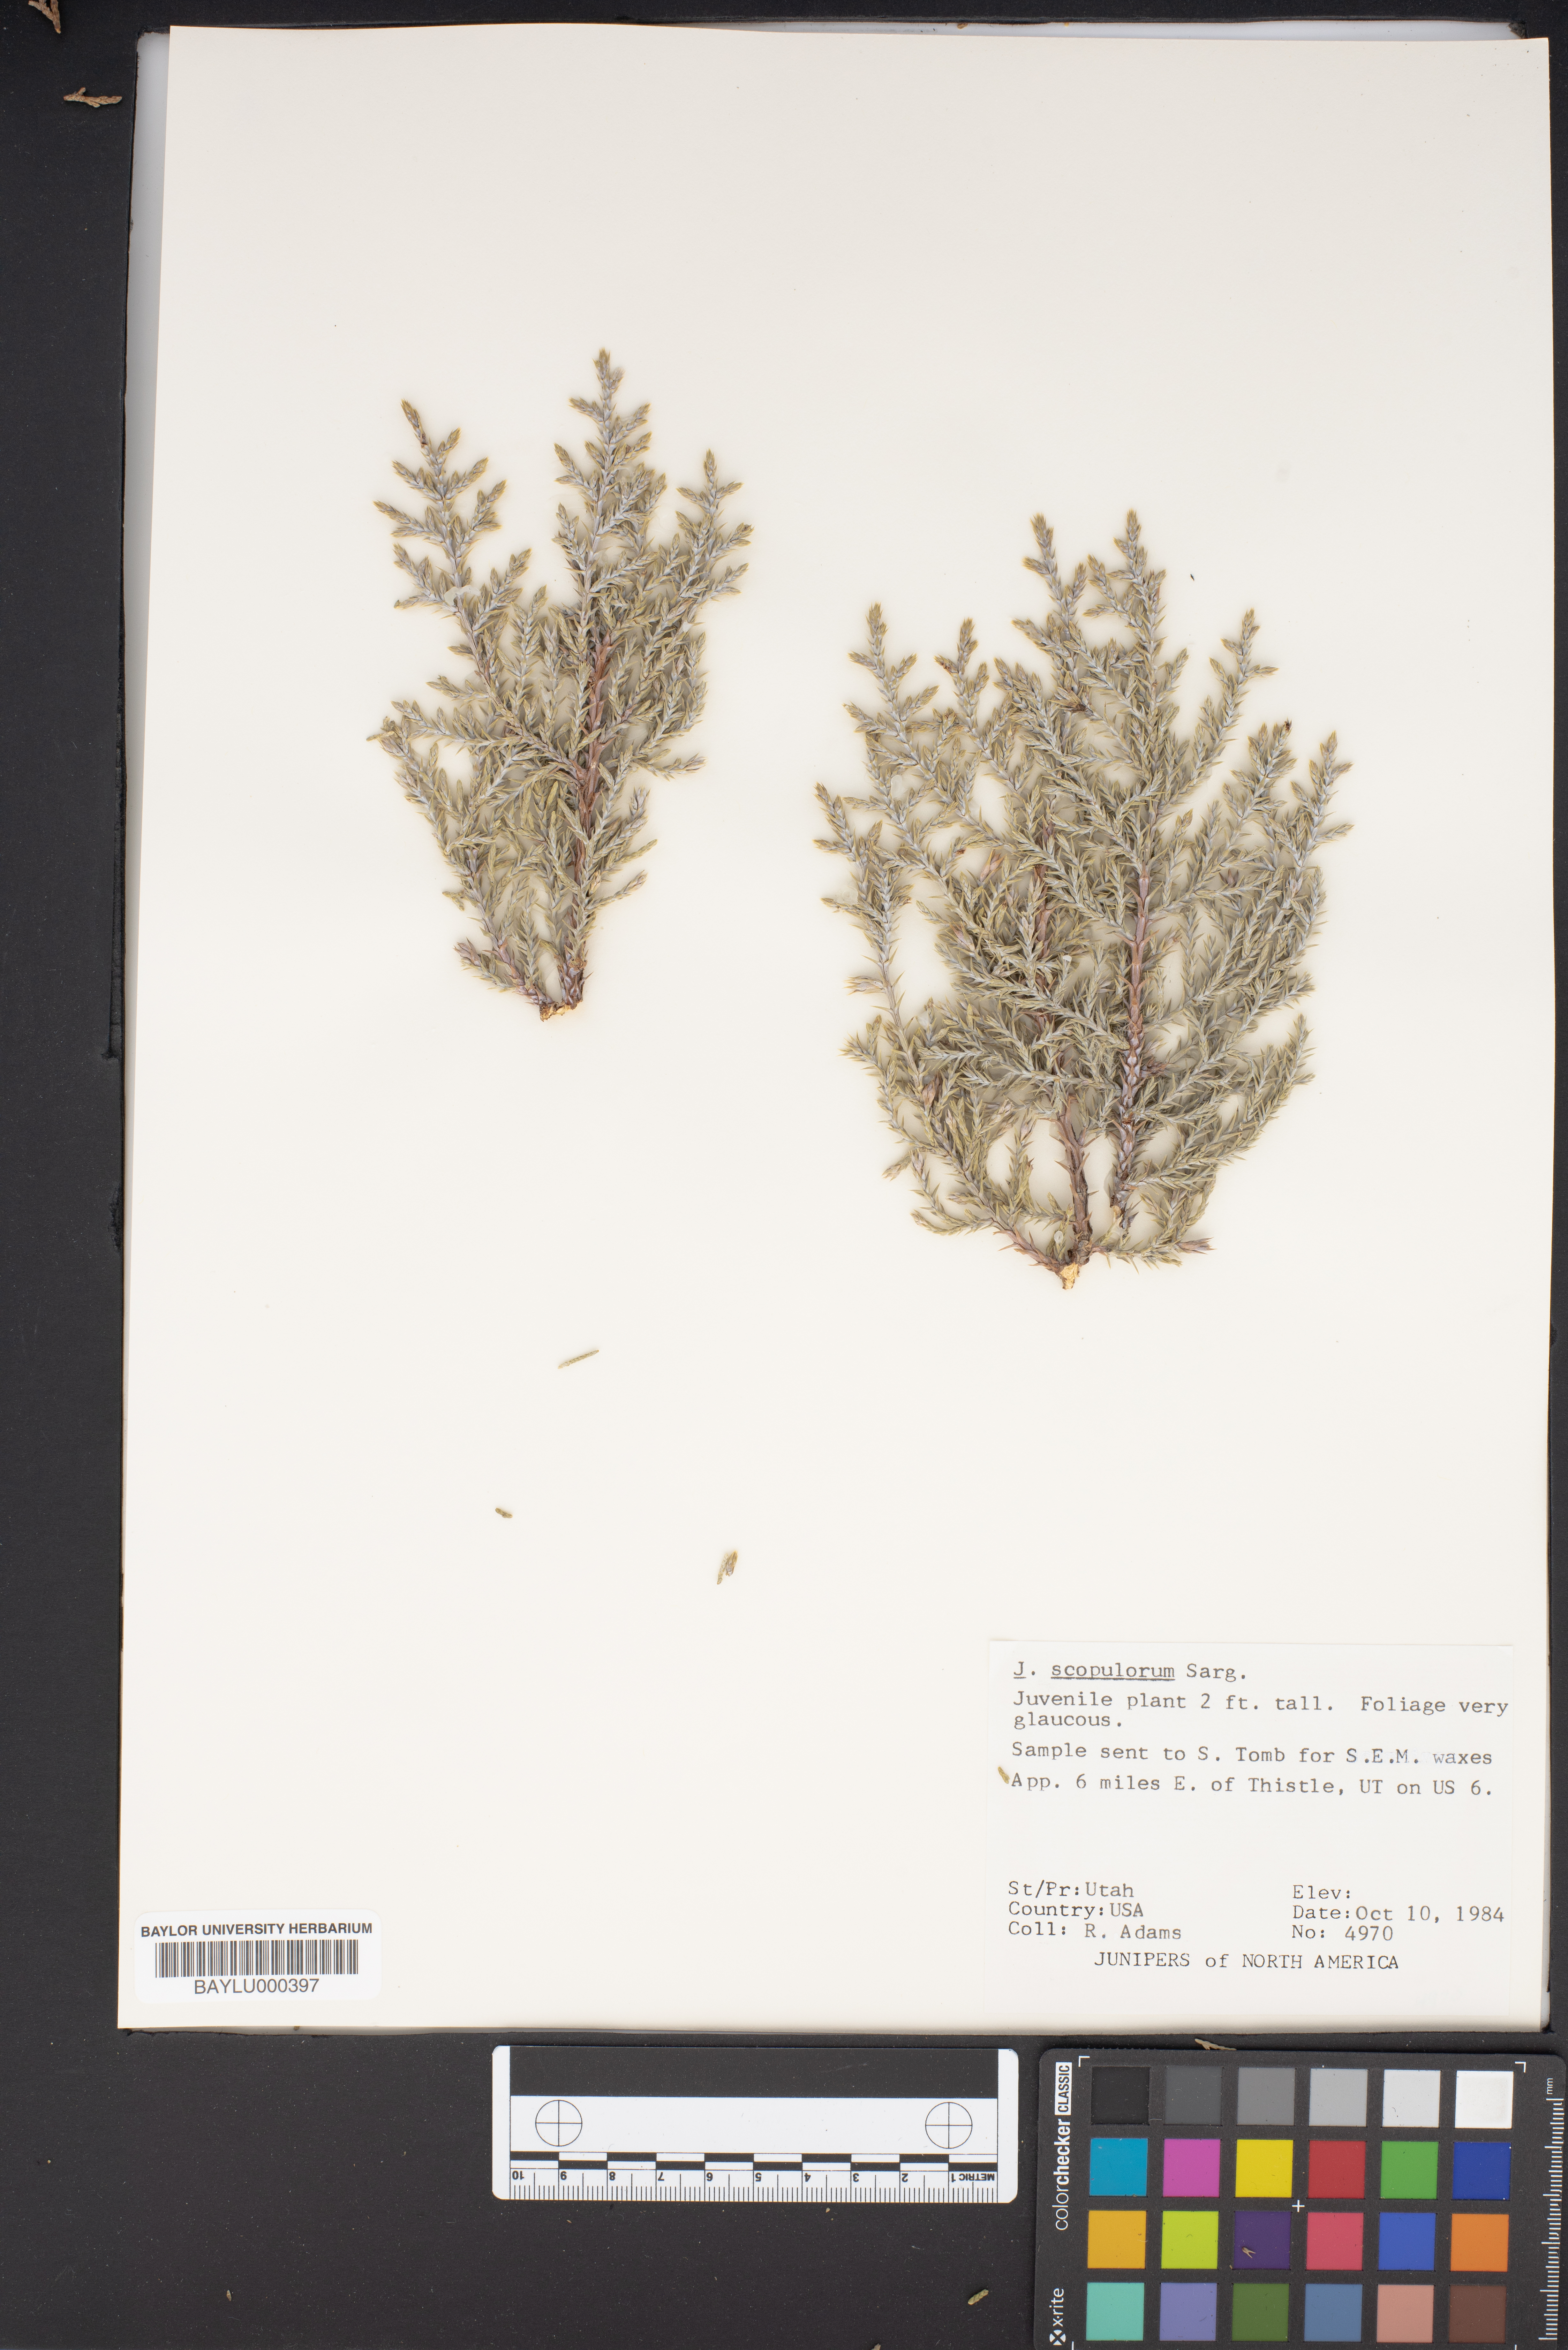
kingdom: Plantae
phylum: Tracheophyta
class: Pinopsida
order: Pinales
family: Cupressaceae
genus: Juniperus
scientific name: Juniperus scopulorum
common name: Rocky mountain juniper
